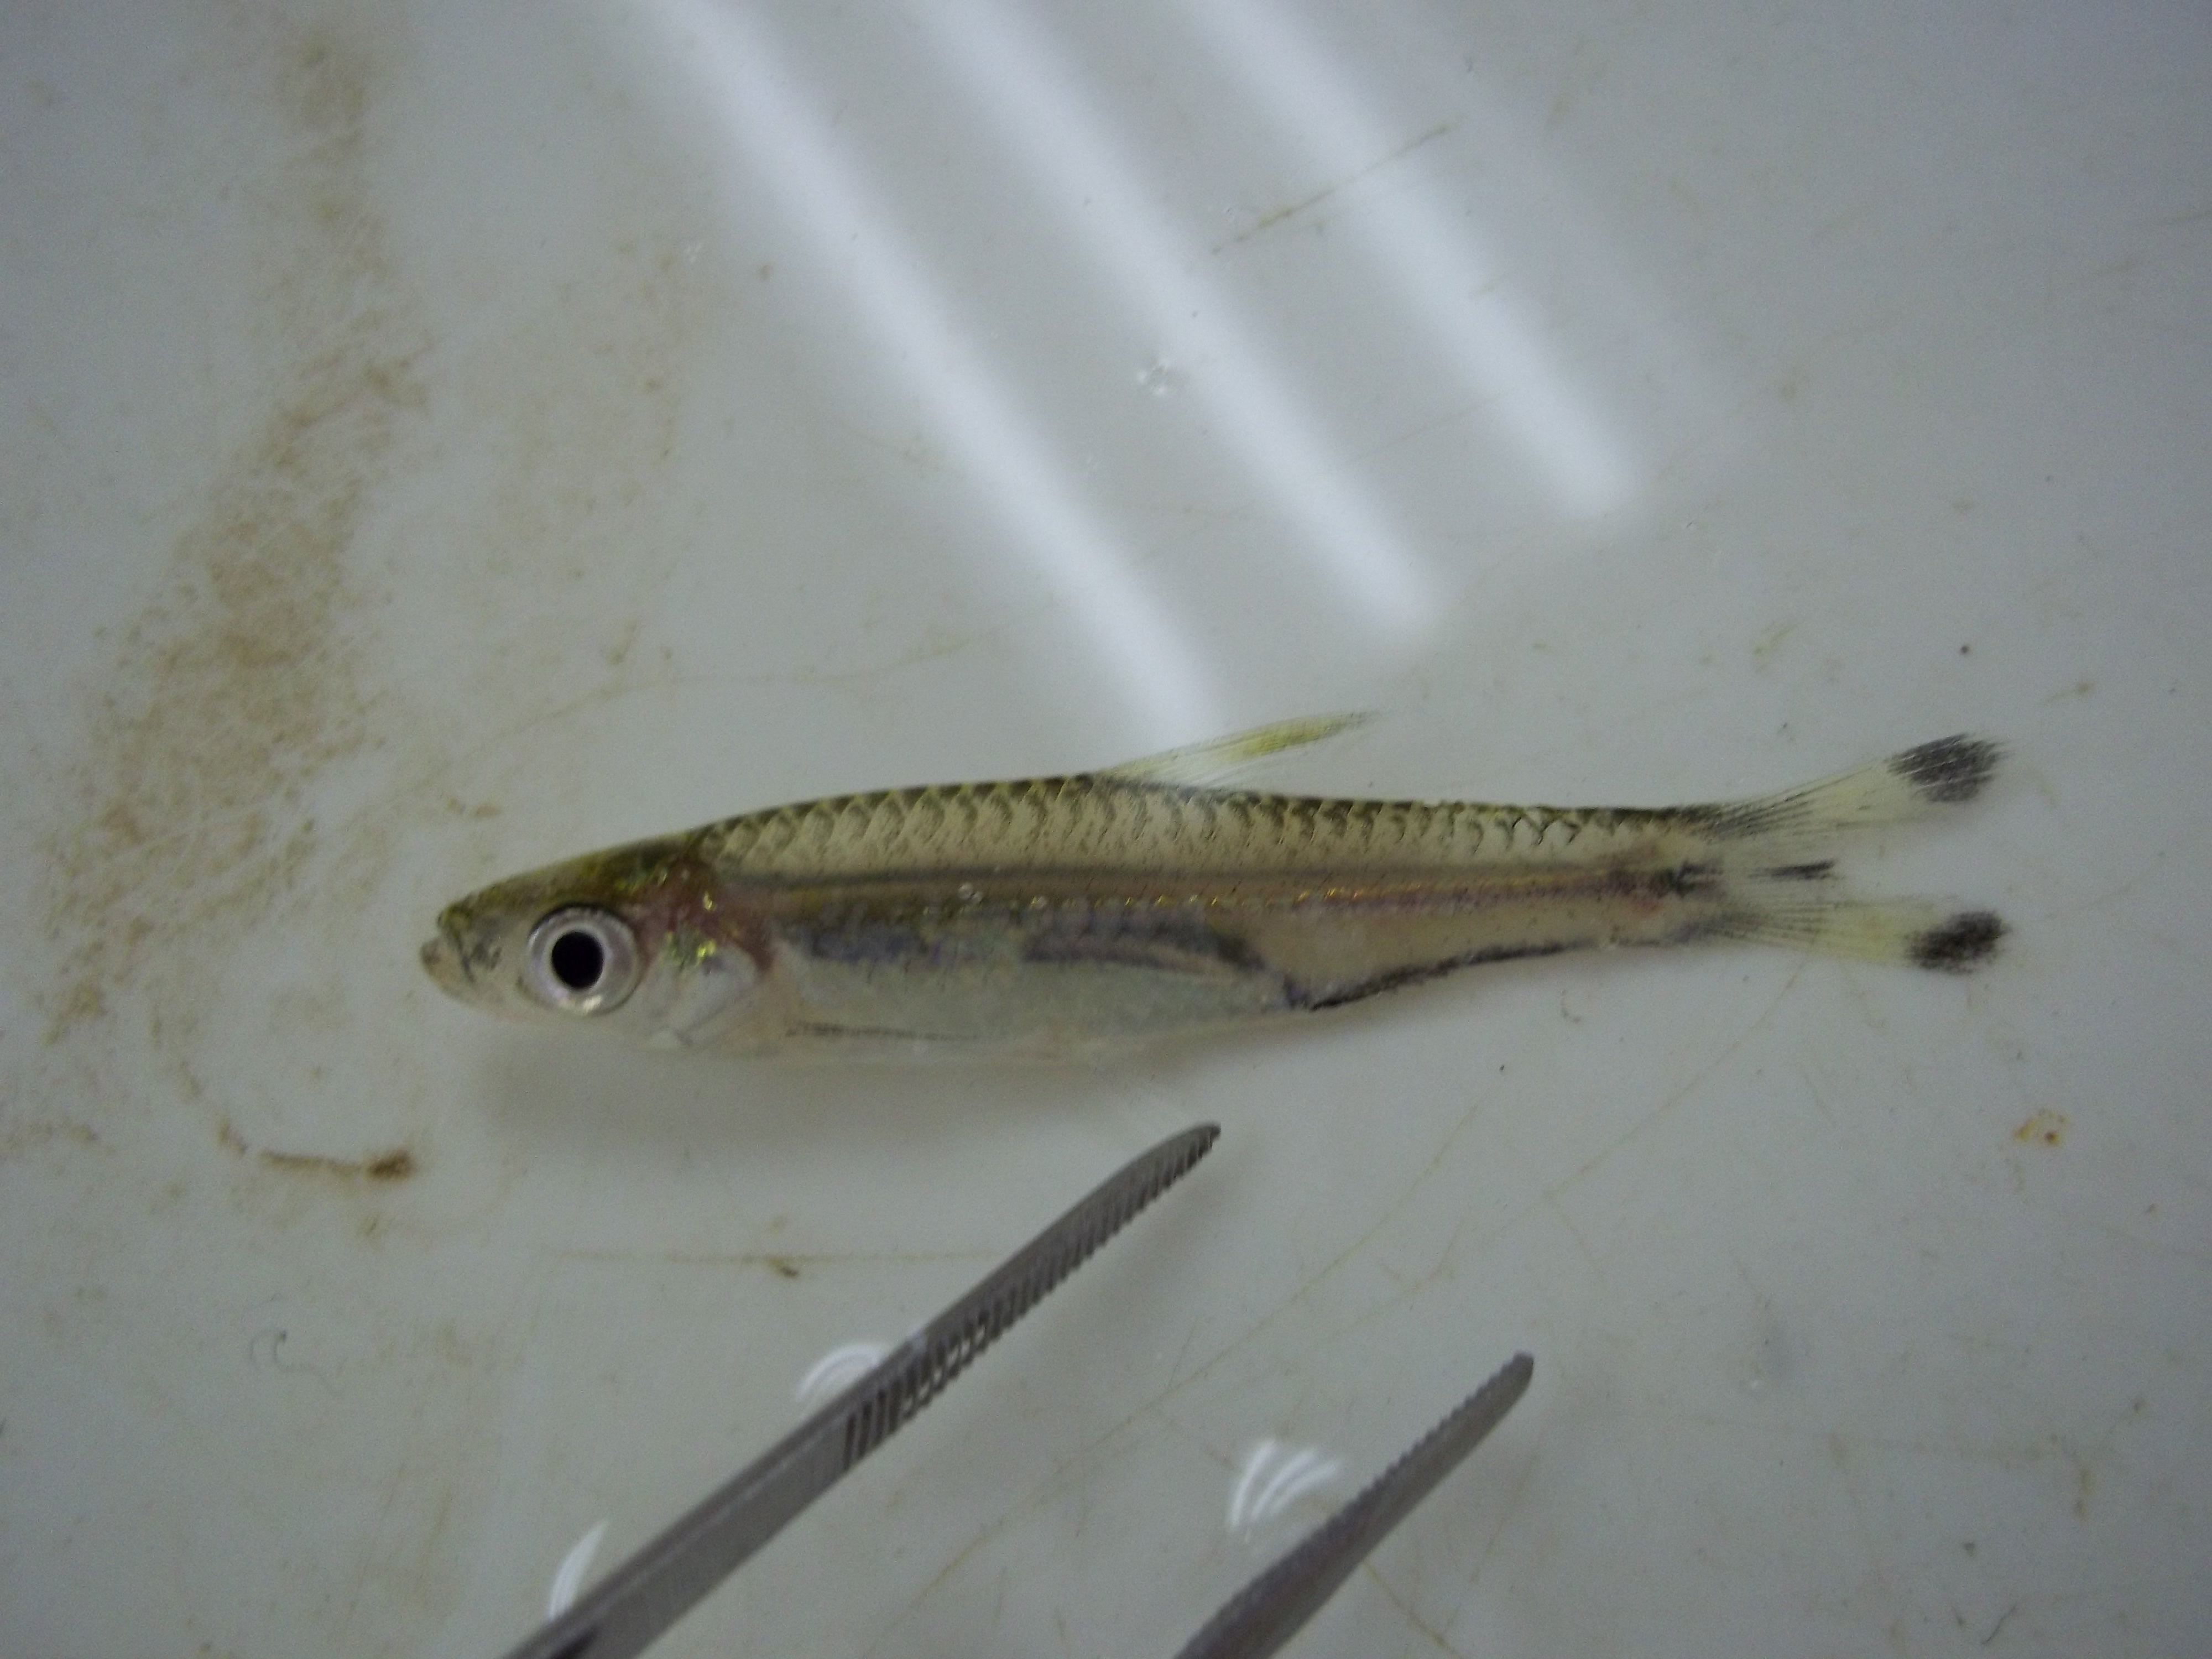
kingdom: Animalia
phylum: Chordata
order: Cypriniformes
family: Cyprinidae
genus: Rasbora
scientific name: Rasbora trilineata
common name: Scissortail rasbora
